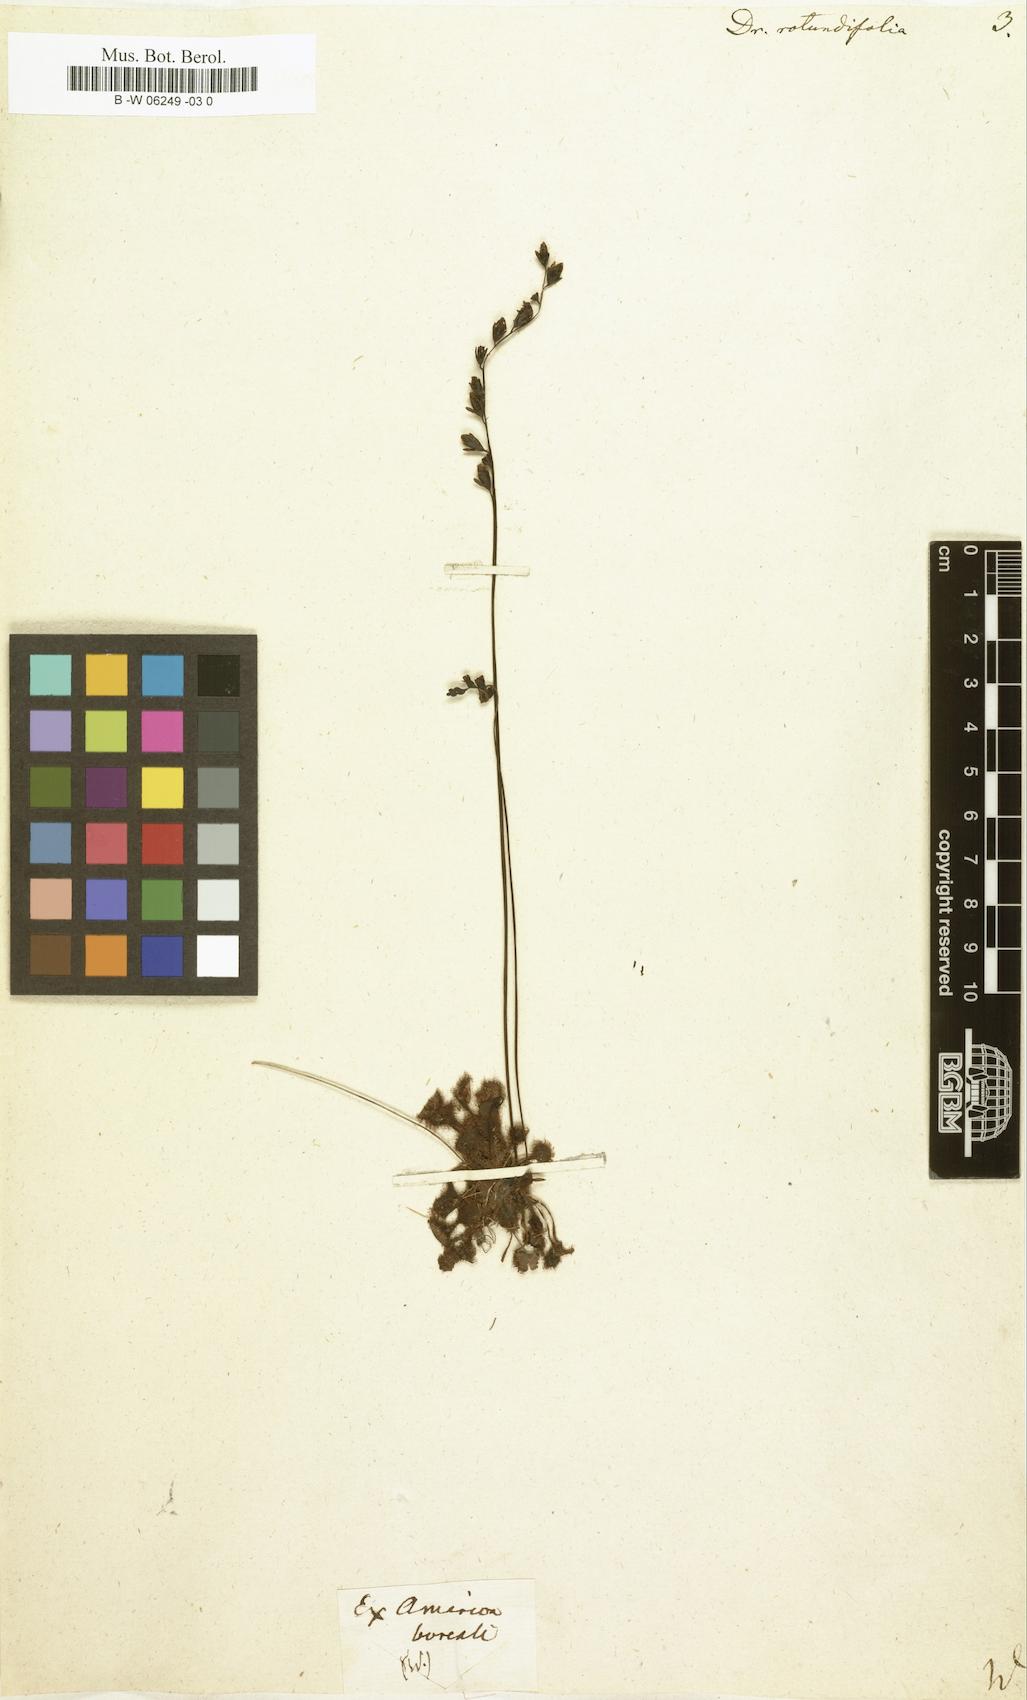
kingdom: Plantae
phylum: Tracheophyta
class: Magnoliopsida
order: Caryophyllales
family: Droseraceae
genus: Drosera
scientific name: Drosera rotundifolia
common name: Round-leaved sundew
